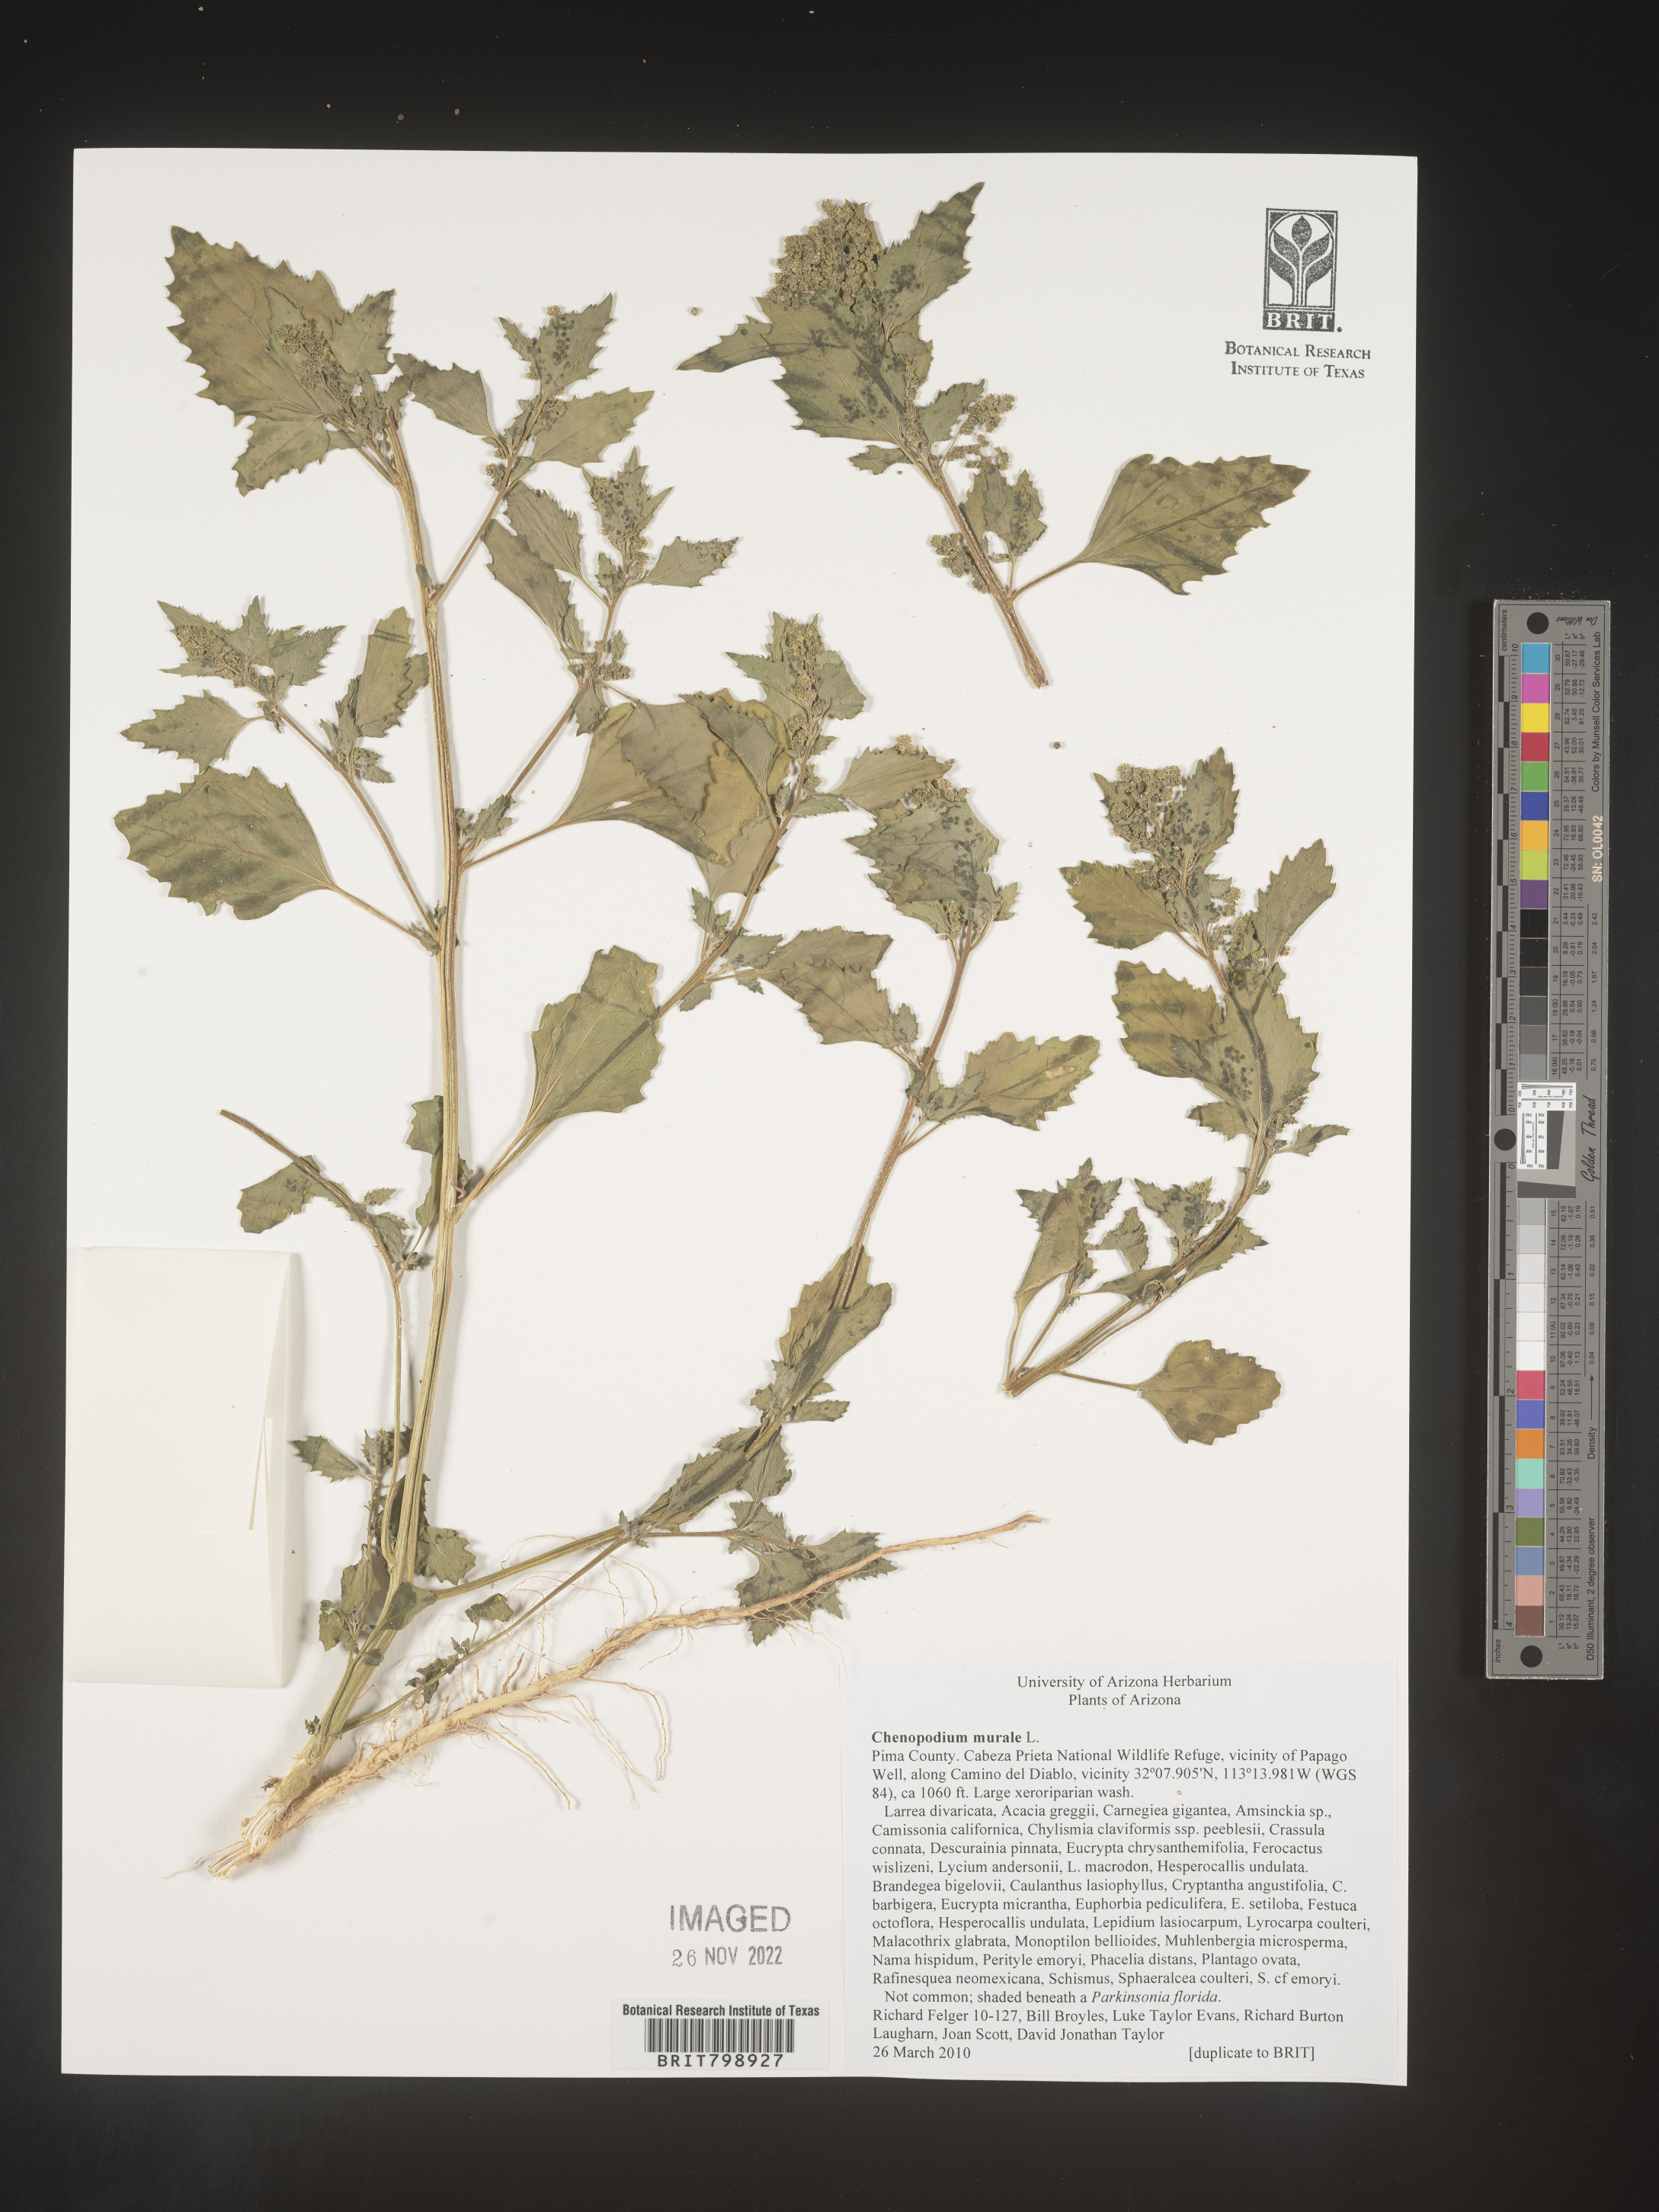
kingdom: Plantae
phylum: Tracheophyta
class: Magnoliopsida
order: Caryophyllales
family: Amaranthaceae
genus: Chenopodiastrum
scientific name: Chenopodiastrum murale
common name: Sowbane
